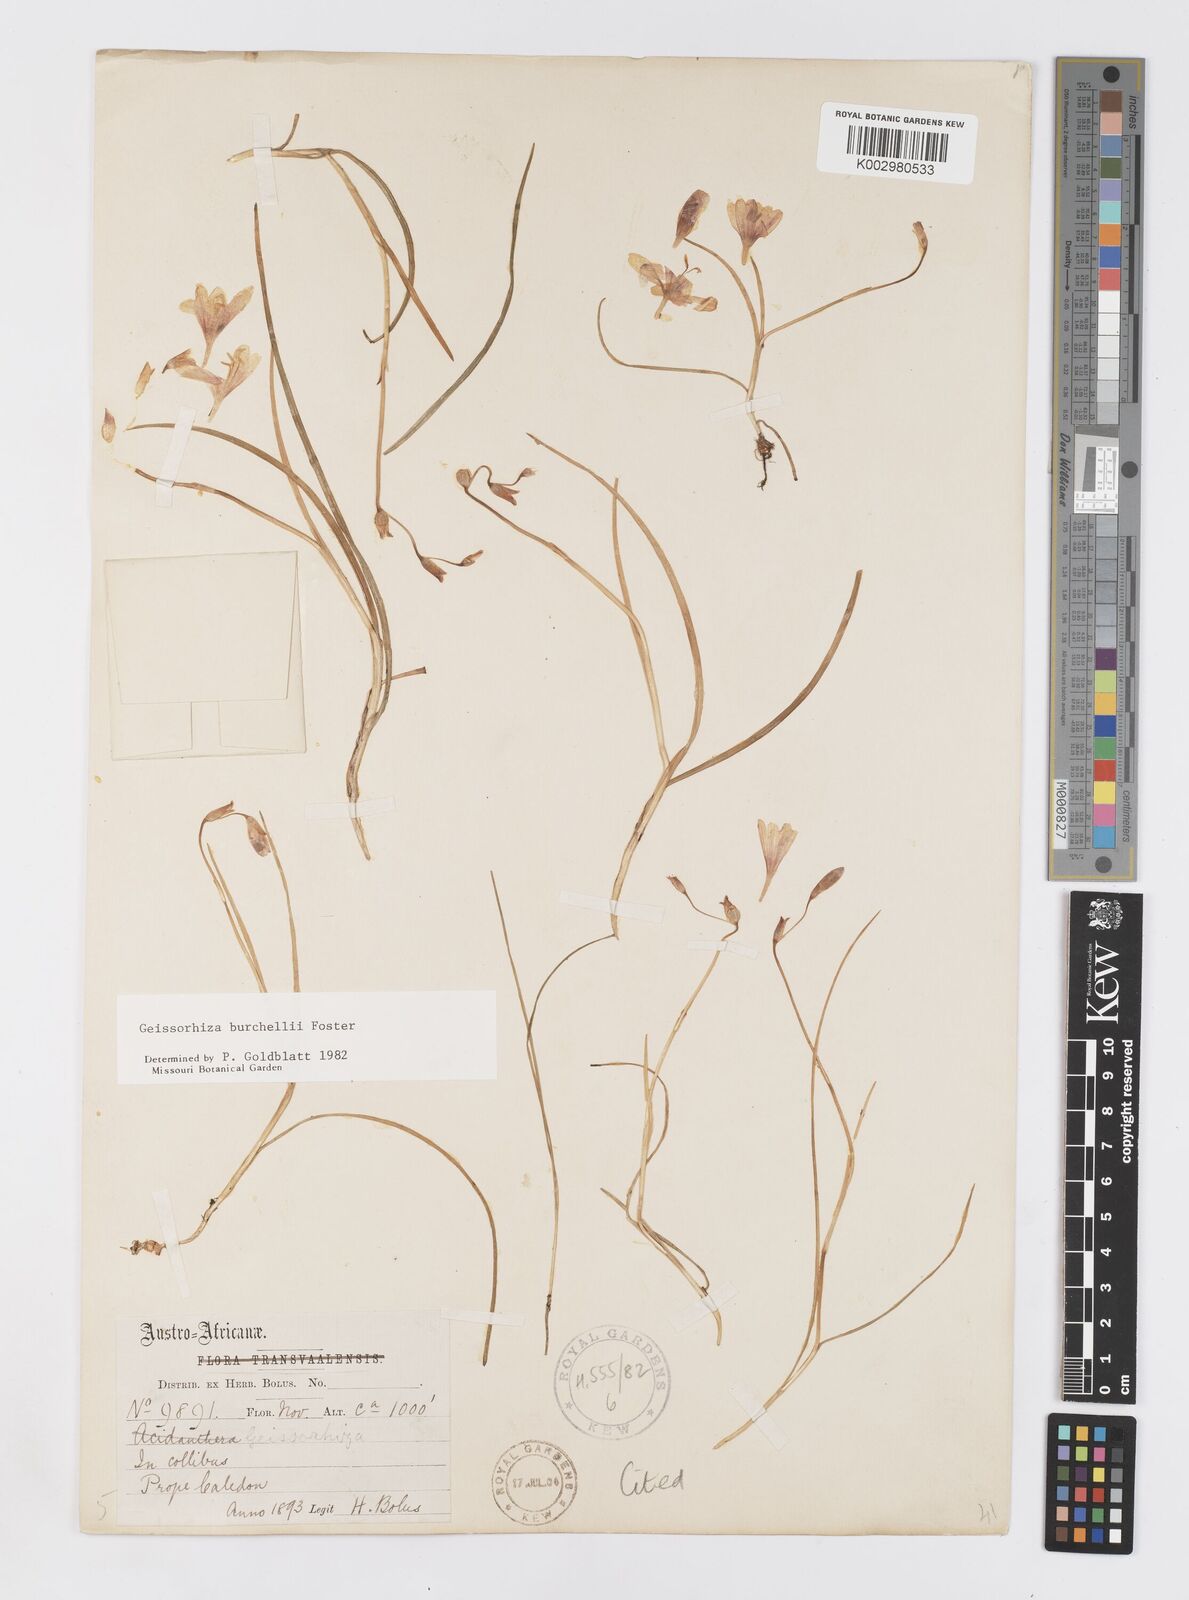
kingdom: Plantae
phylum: Tracheophyta
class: Liliopsida
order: Asparagales
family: Iridaceae
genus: Geissorhiza
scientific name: Geissorhiza burchellii
